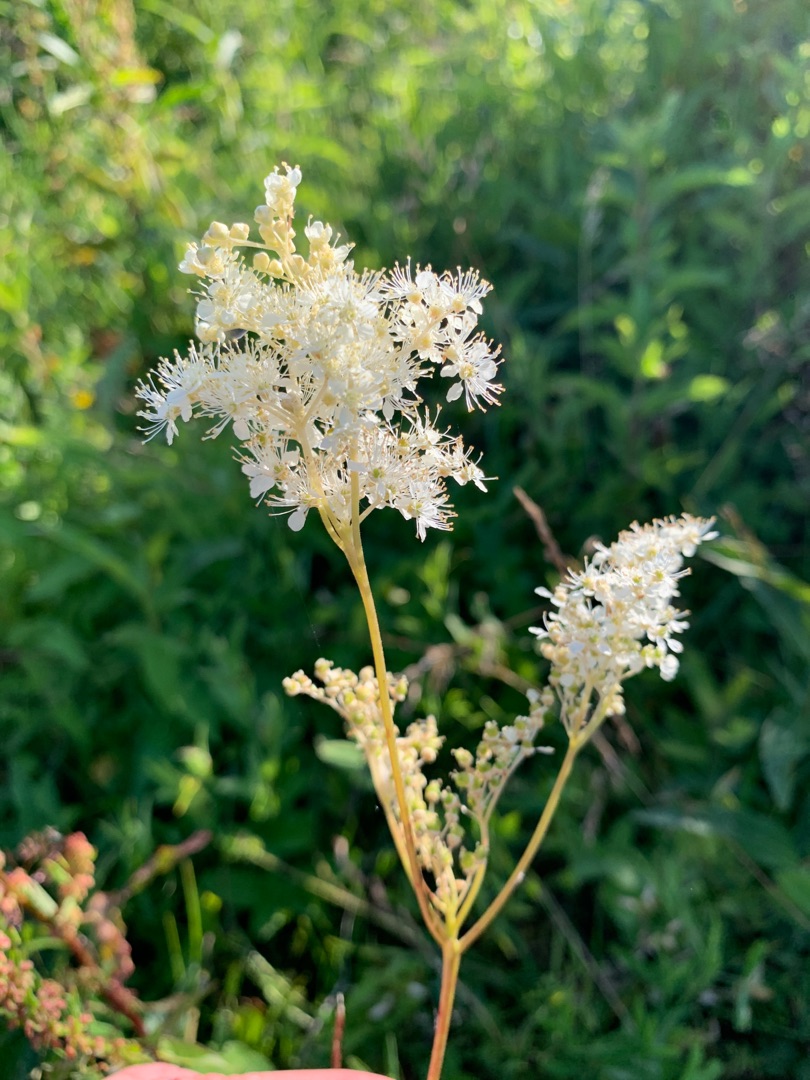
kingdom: Plantae
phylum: Tracheophyta
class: Magnoliopsida
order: Rosales
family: Rosaceae
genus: Filipendula
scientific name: Filipendula ulmaria
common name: Almindelig mjødurt
